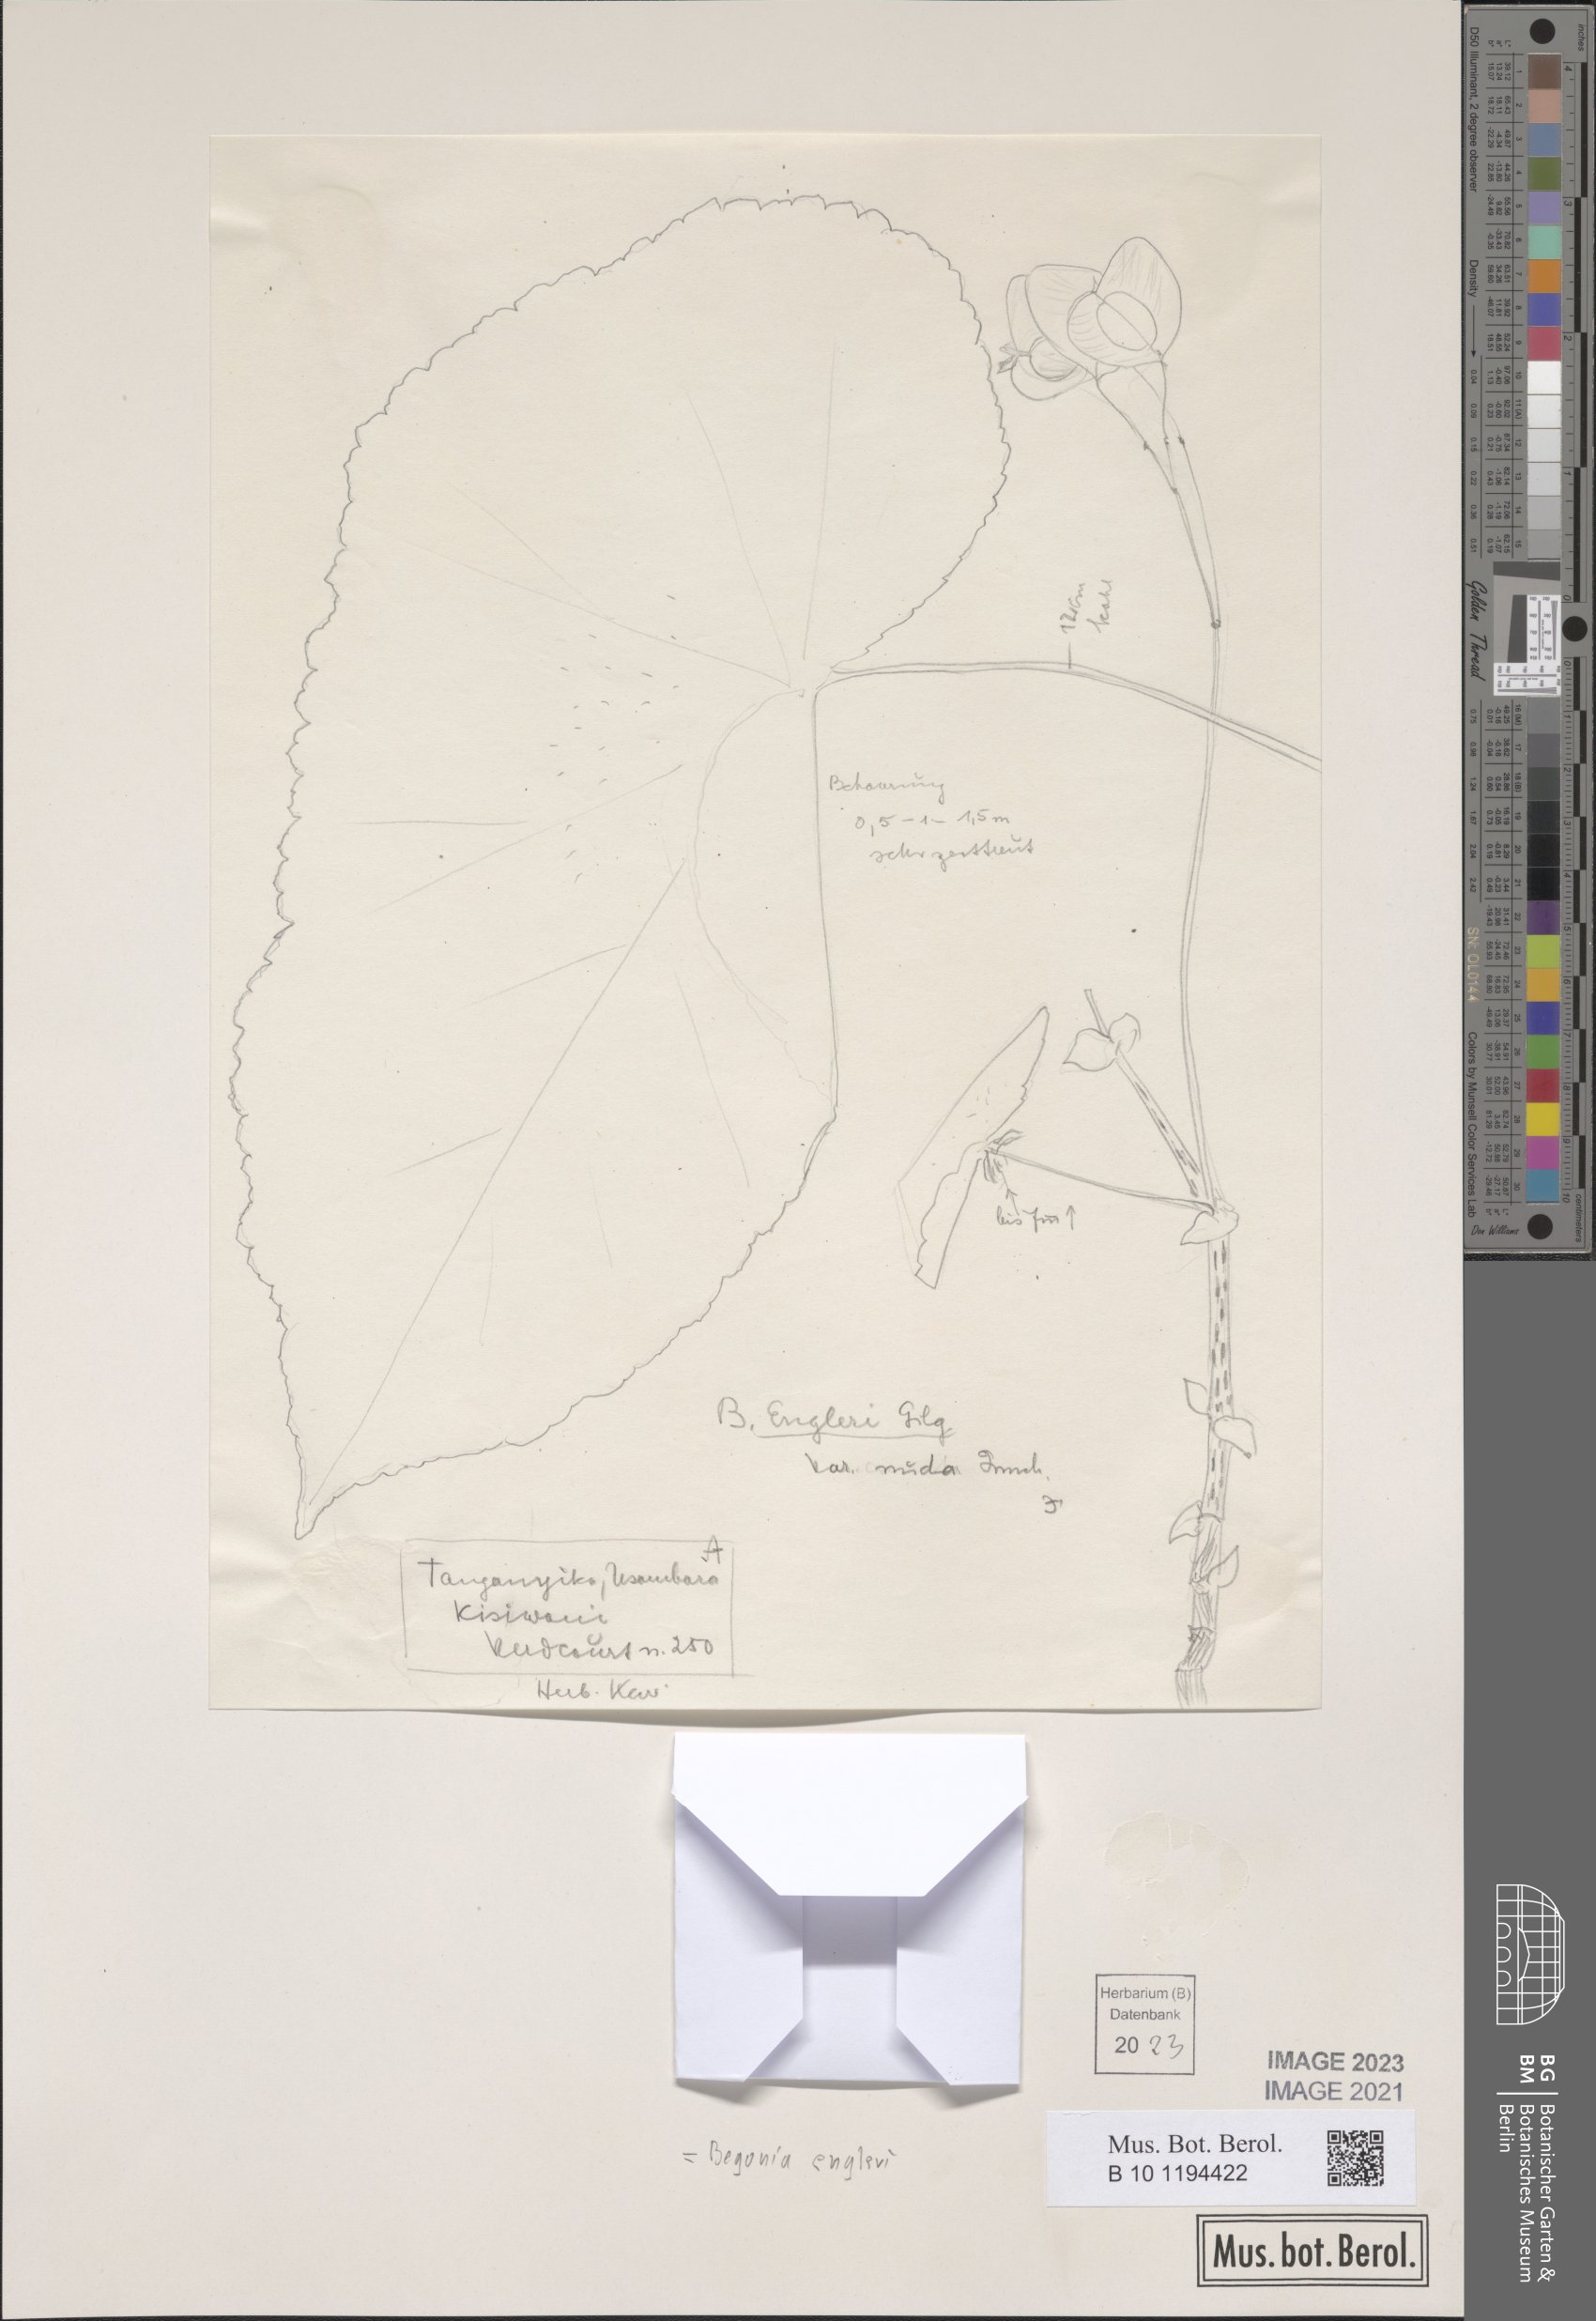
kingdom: Plantae
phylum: Tracheophyta
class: Magnoliopsida
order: Cucurbitales
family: Begoniaceae
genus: Begonia
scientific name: Begonia engleri
